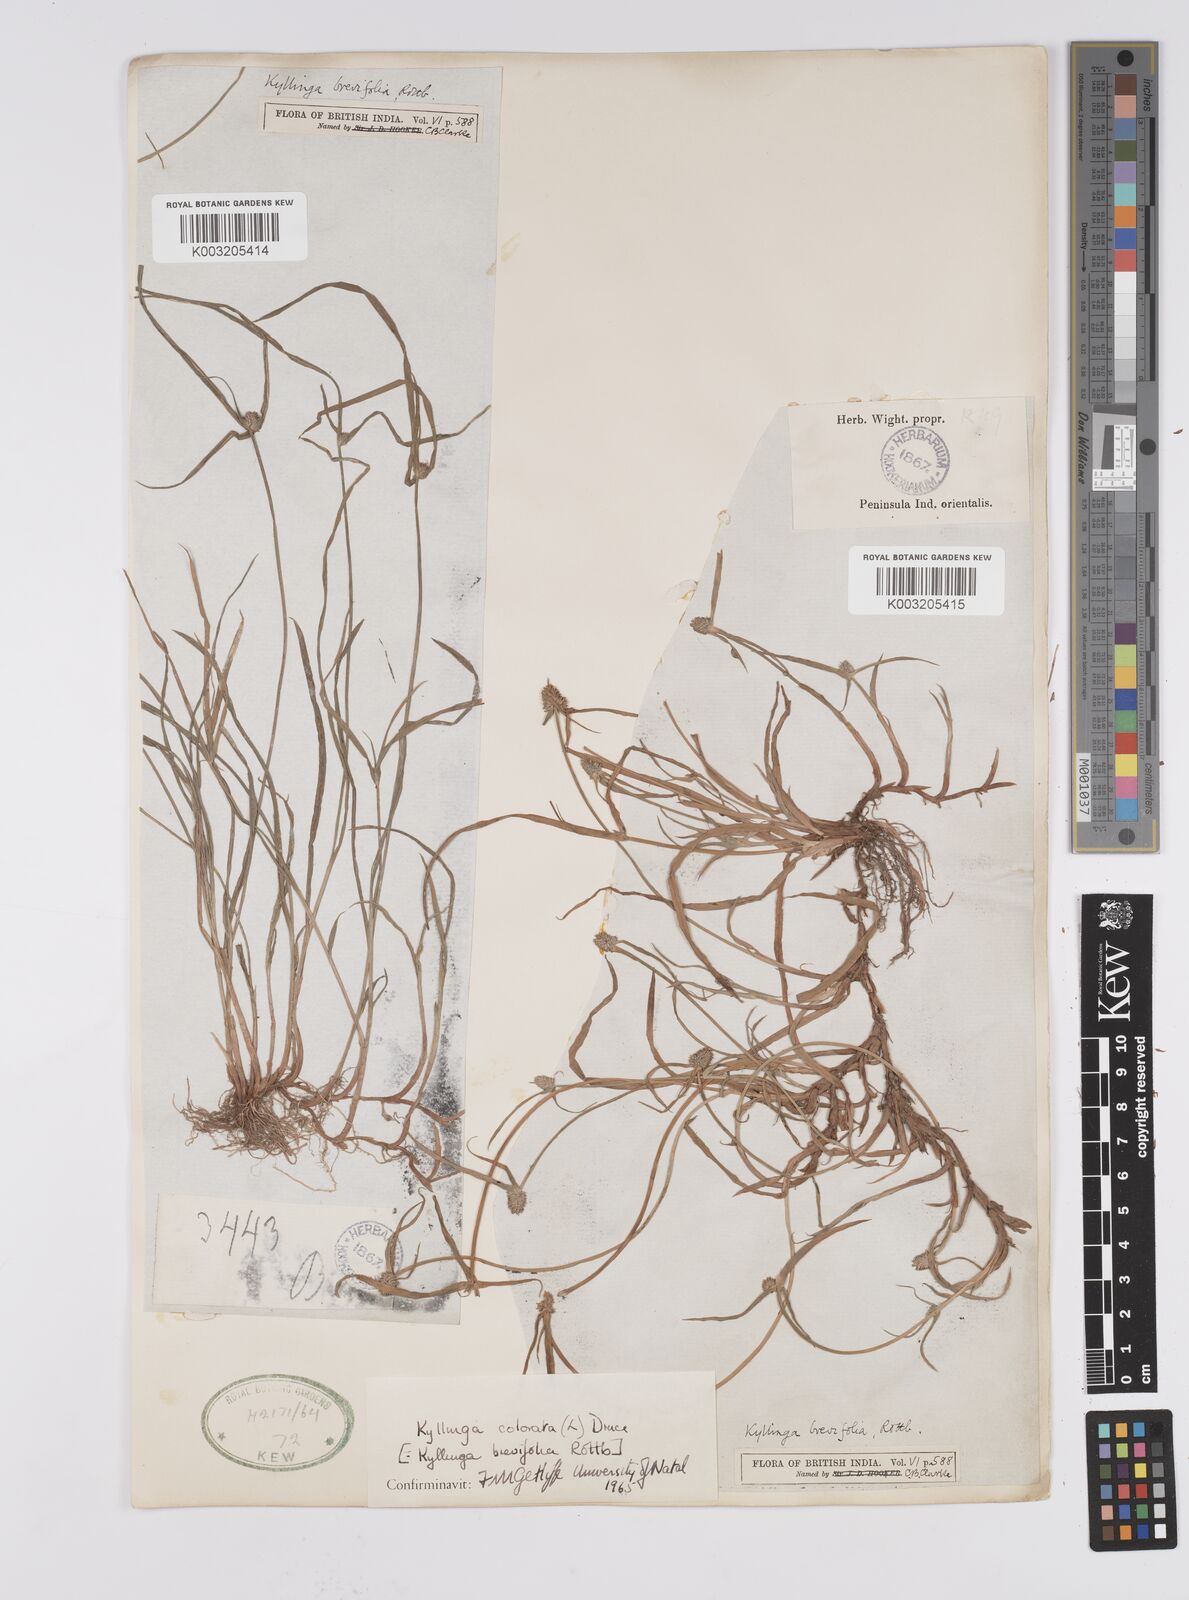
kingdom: Plantae
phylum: Tracheophyta
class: Liliopsida
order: Poales
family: Cyperaceae
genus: Cyperus
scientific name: Cyperus brevifolius
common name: Globe kyllinga
